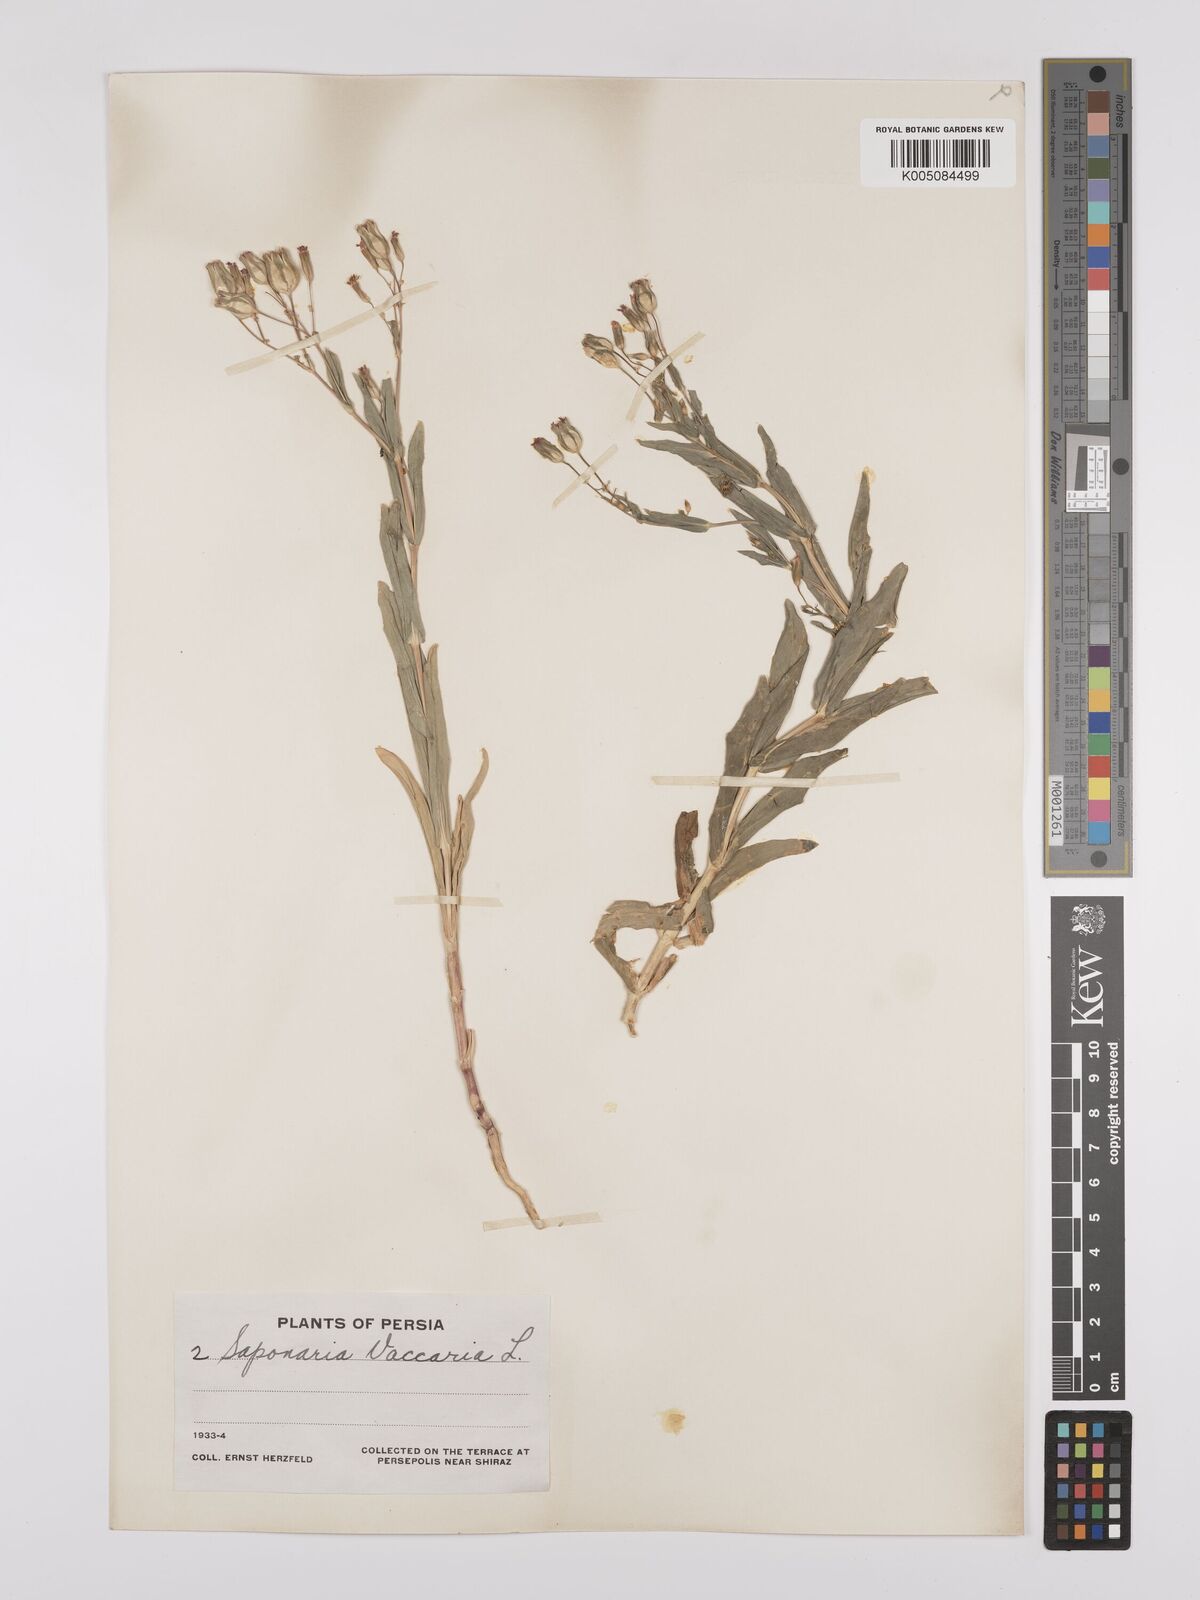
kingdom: Plantae
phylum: Tracheophyta
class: Magnoliopsida
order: Caryophyllales
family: Caryophyllaceae
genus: Gypsophila
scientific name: Gypsophila vaccaria
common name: Cow soapwort
